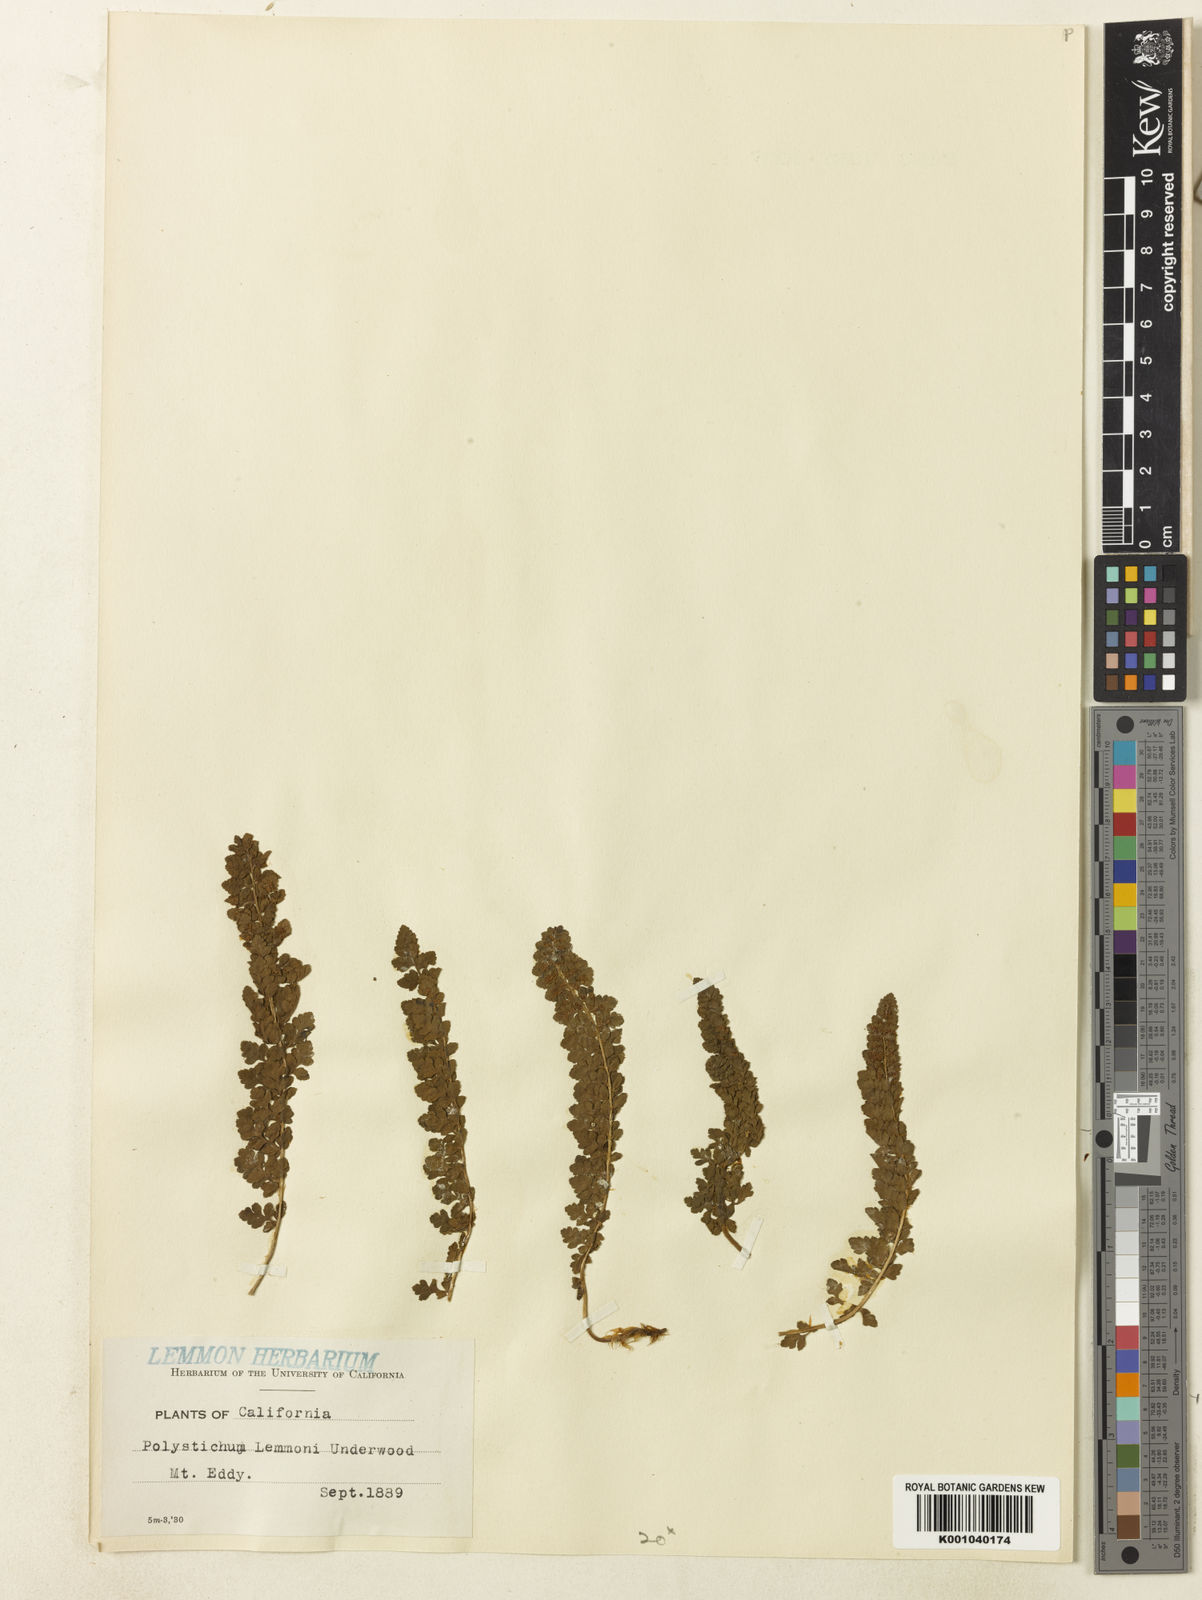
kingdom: Plantae
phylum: Tracheophyta
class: Polypodiopsida
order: Polypodiales
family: Dryopteridaceae
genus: Polystichum
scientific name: Polystichum lemmonii
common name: Lemmon's holly fern
